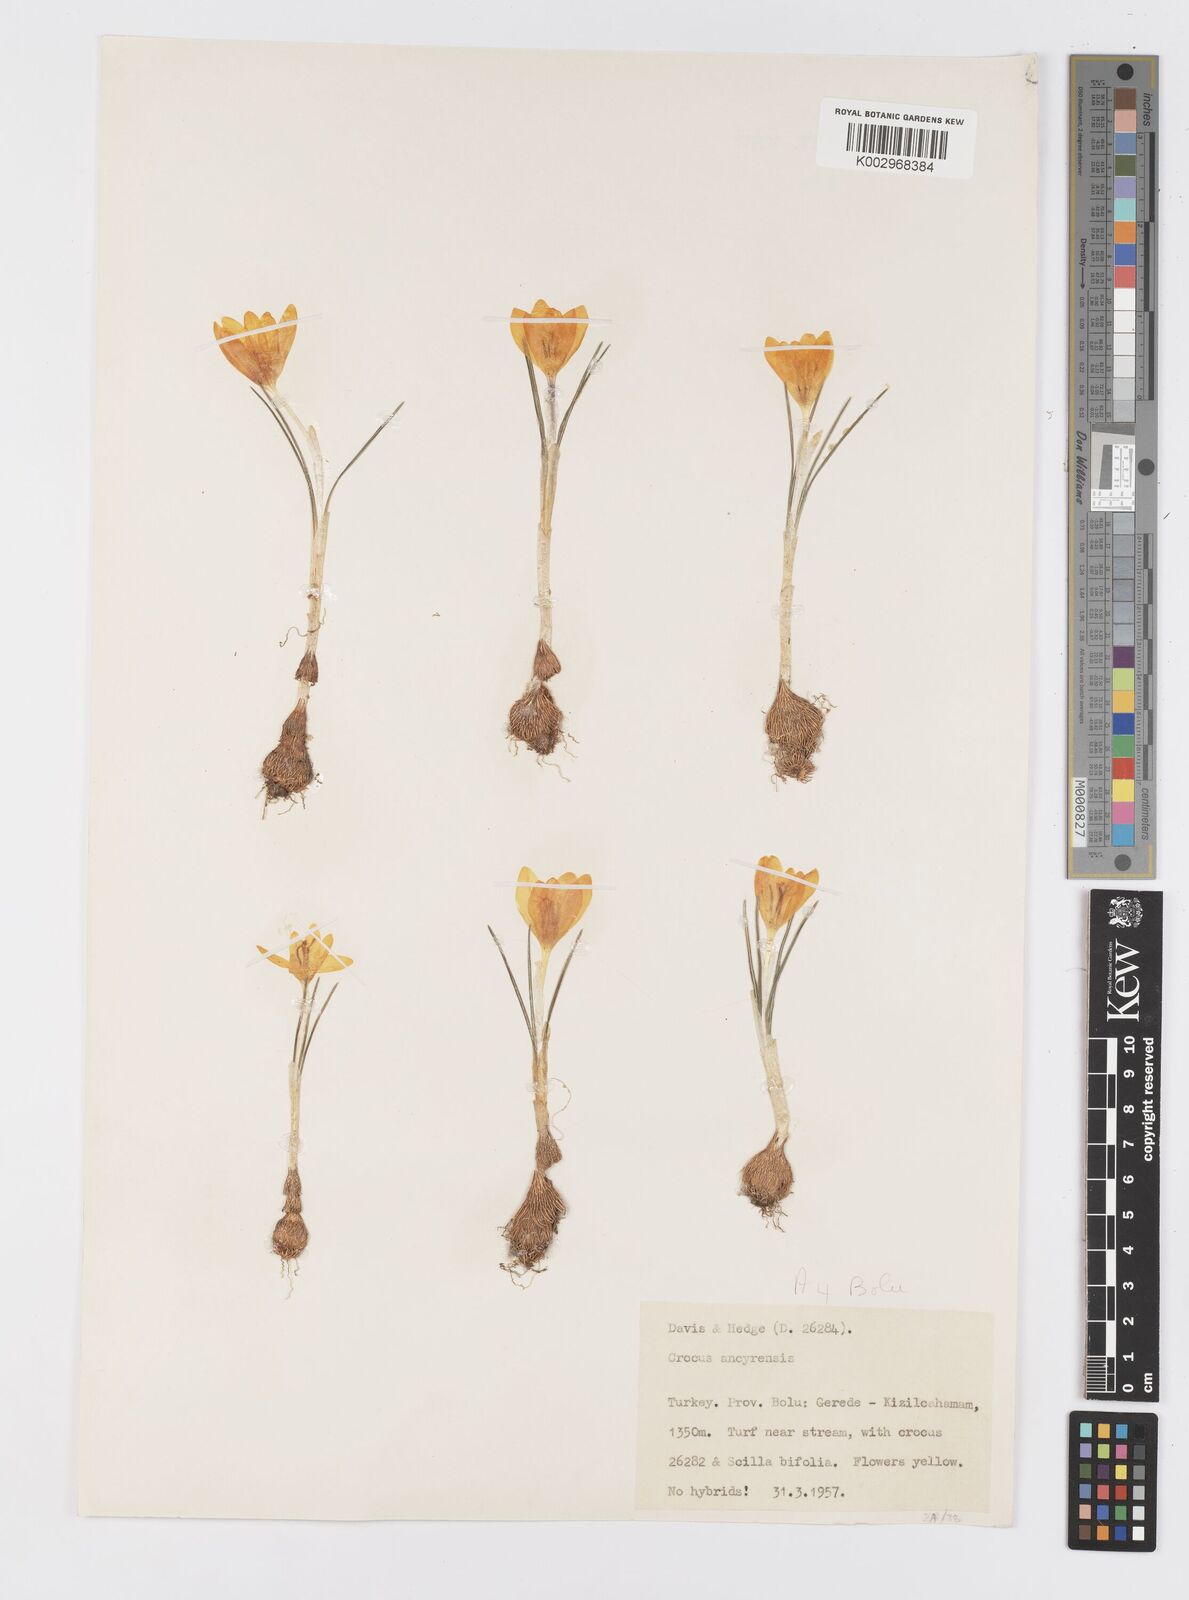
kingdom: Plantae
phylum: Tracheophyta
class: Liliopsida
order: Asparagales
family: Iridaceae
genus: Crocus
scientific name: Crocus ancyrensis
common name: Ankara crocus
